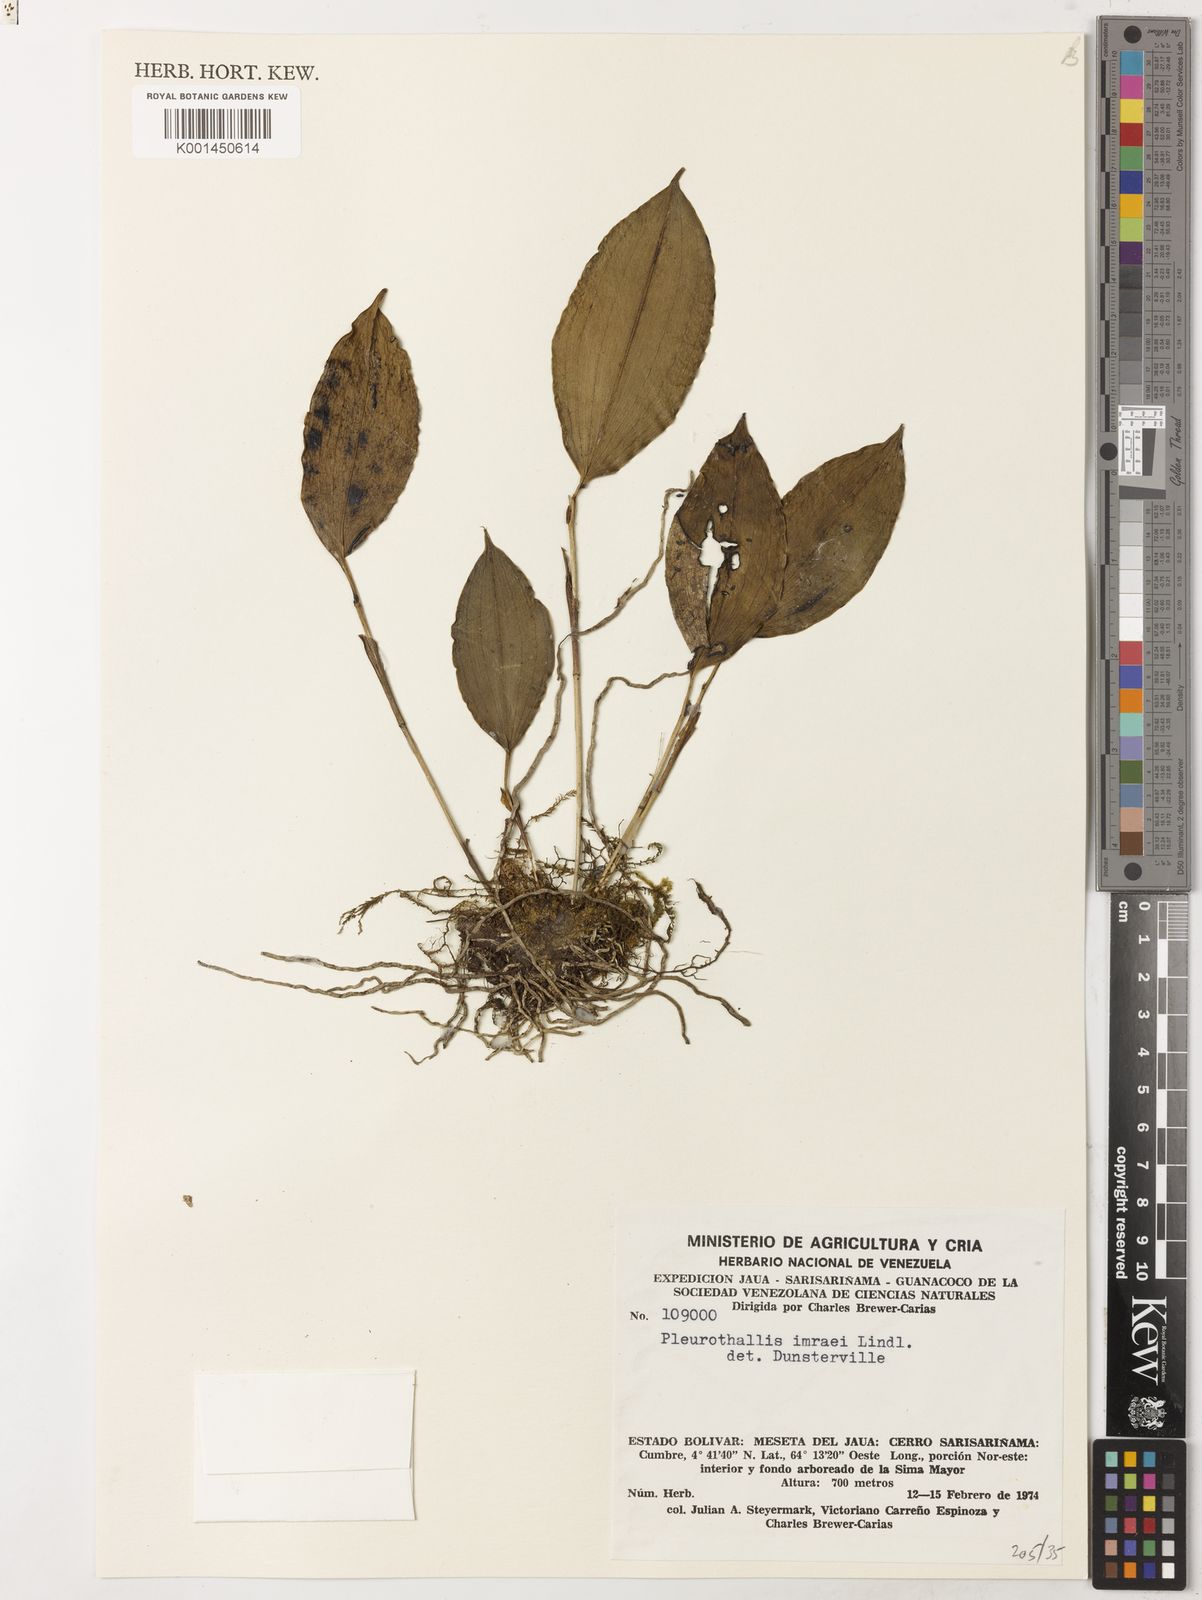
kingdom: Plantae
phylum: Tracheophyta
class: Liliopsida
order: Asparagales
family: Orchidaceae
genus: Stelis
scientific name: Stelis imraei
